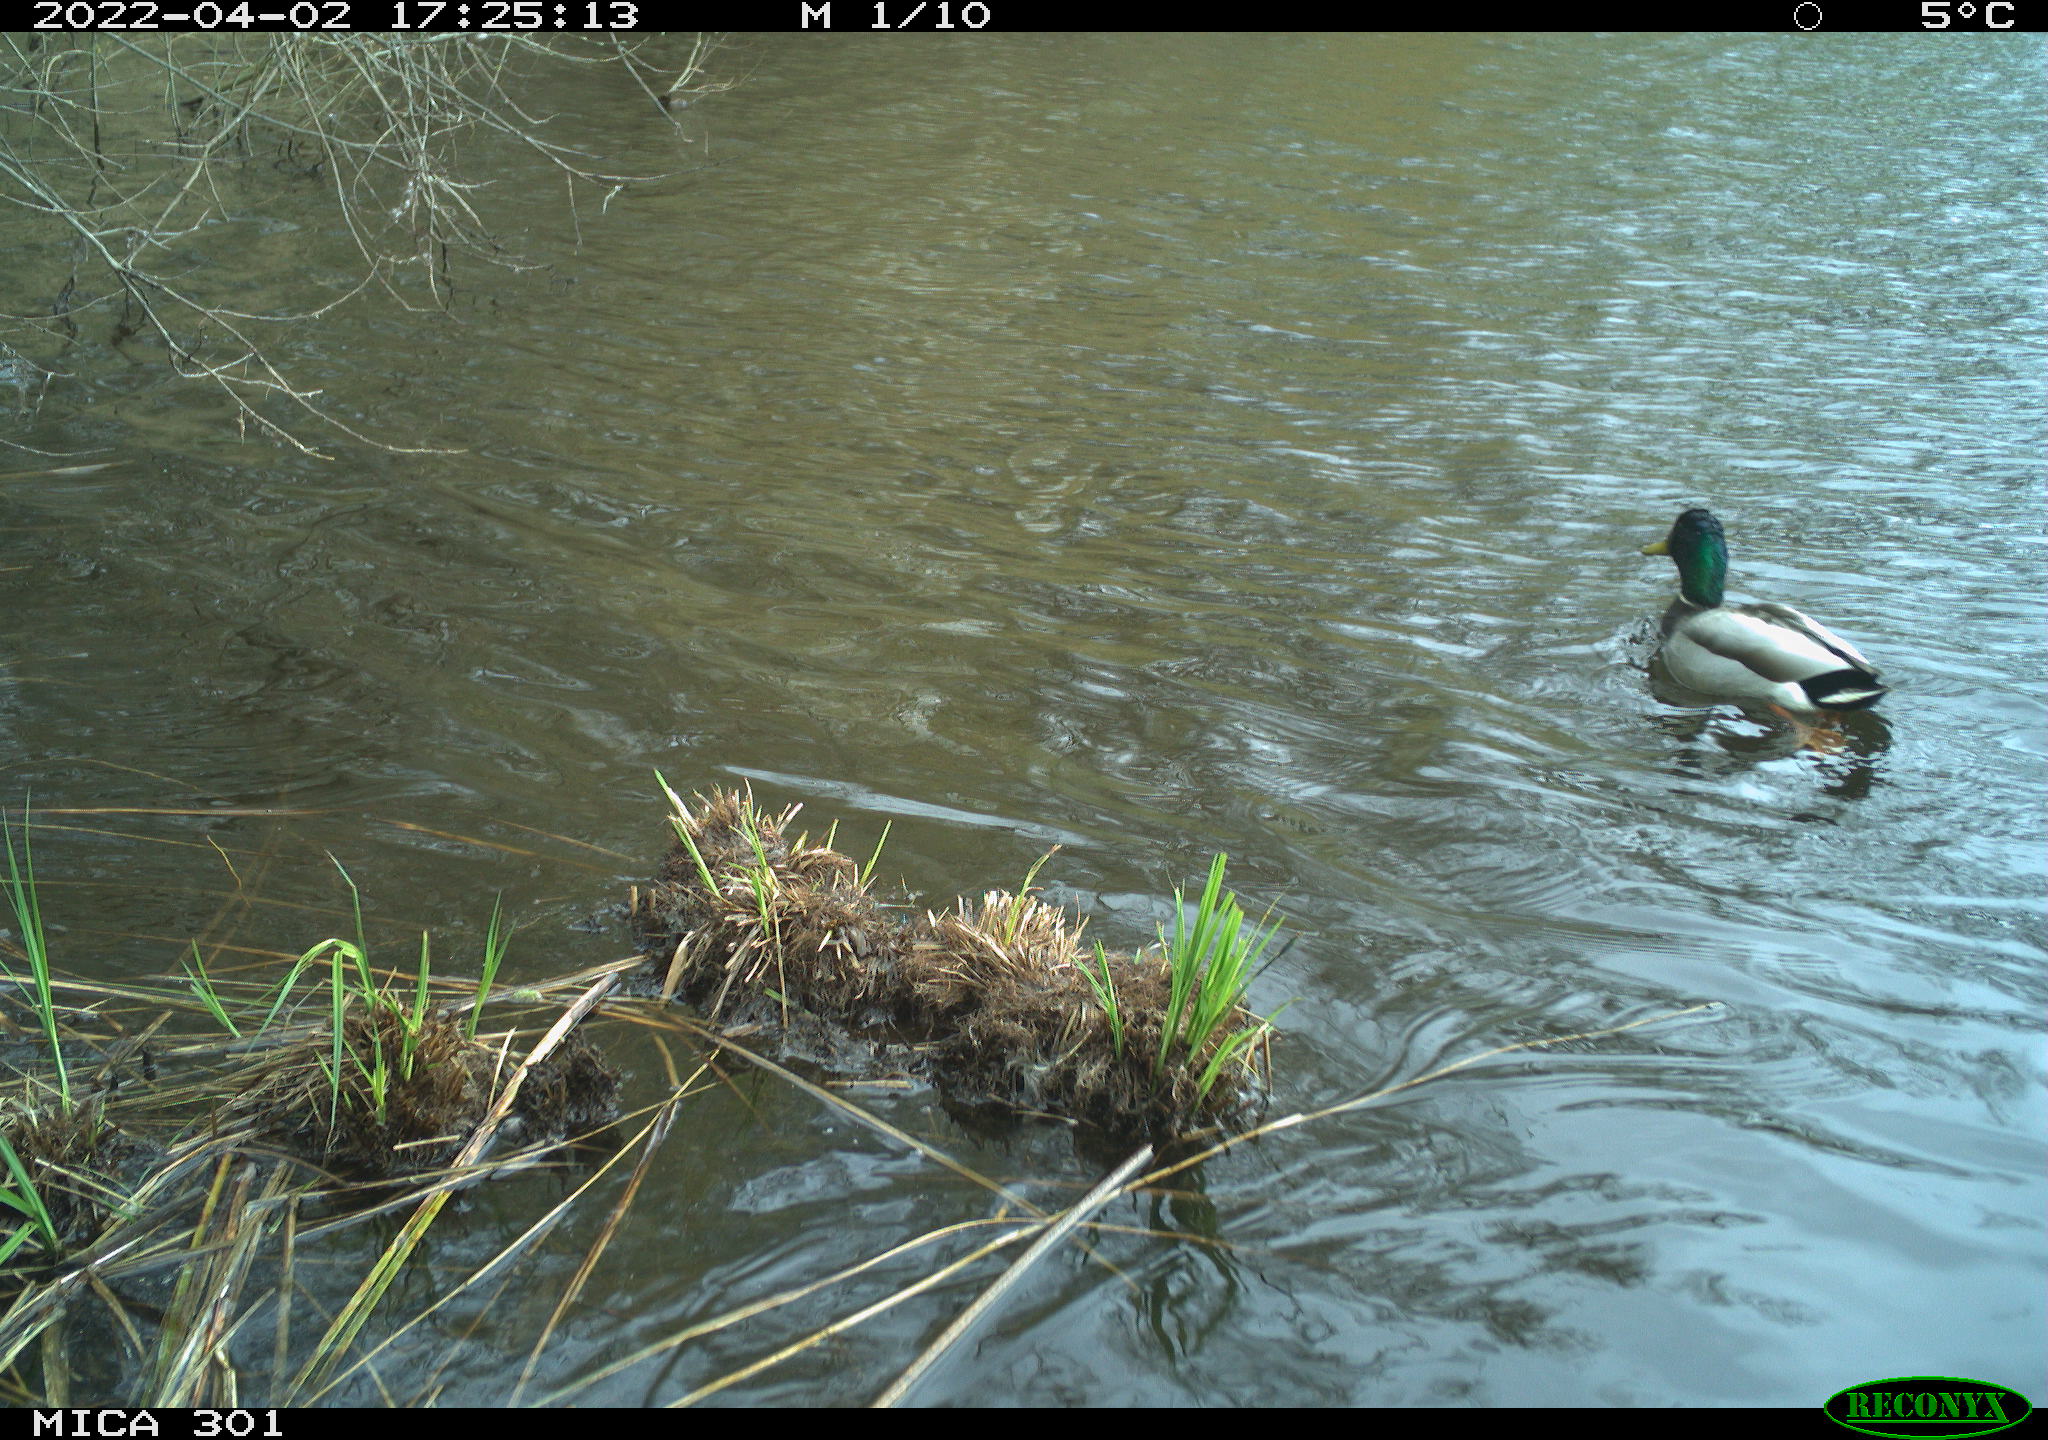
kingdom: Animalia
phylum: Chordata
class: Aves
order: Anseriformes
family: Anatidae
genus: Anas
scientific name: Anas platyrhynchos
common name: Mallard
